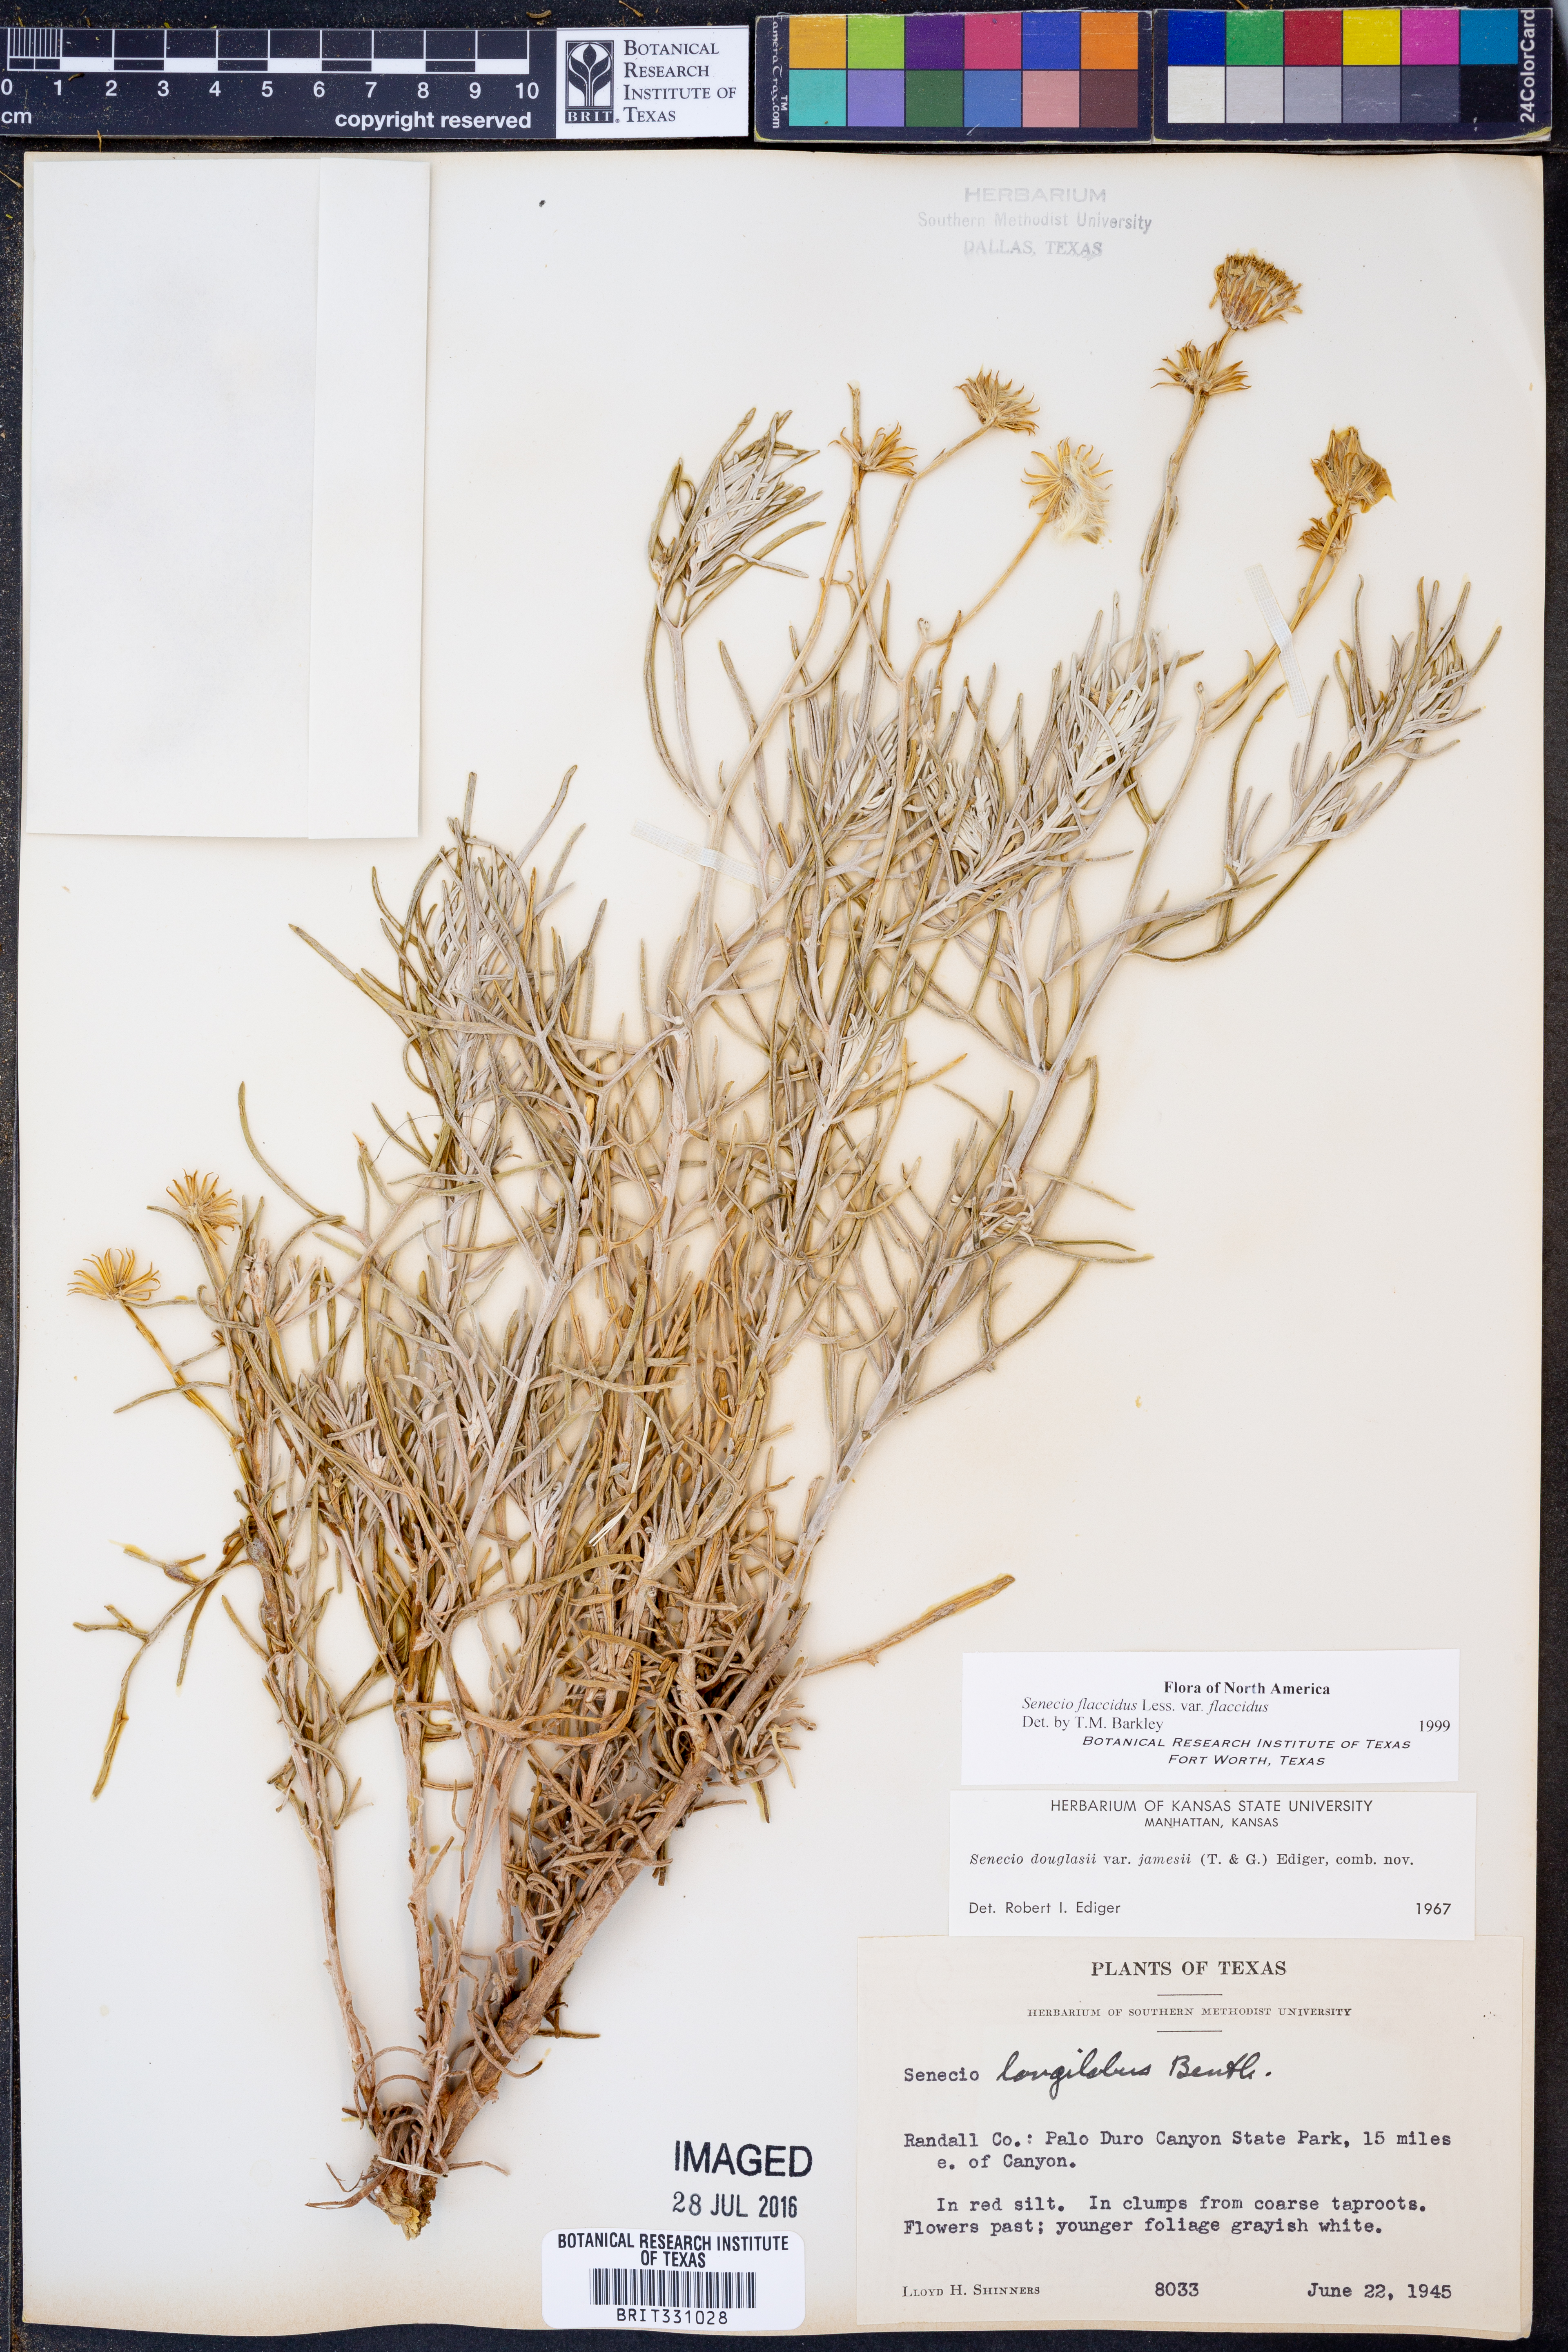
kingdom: Plantae
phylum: Tracheophyta
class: Magnoliopsida
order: Asterales
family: Asteraceae
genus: Senecio
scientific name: Senecio flaccidus
